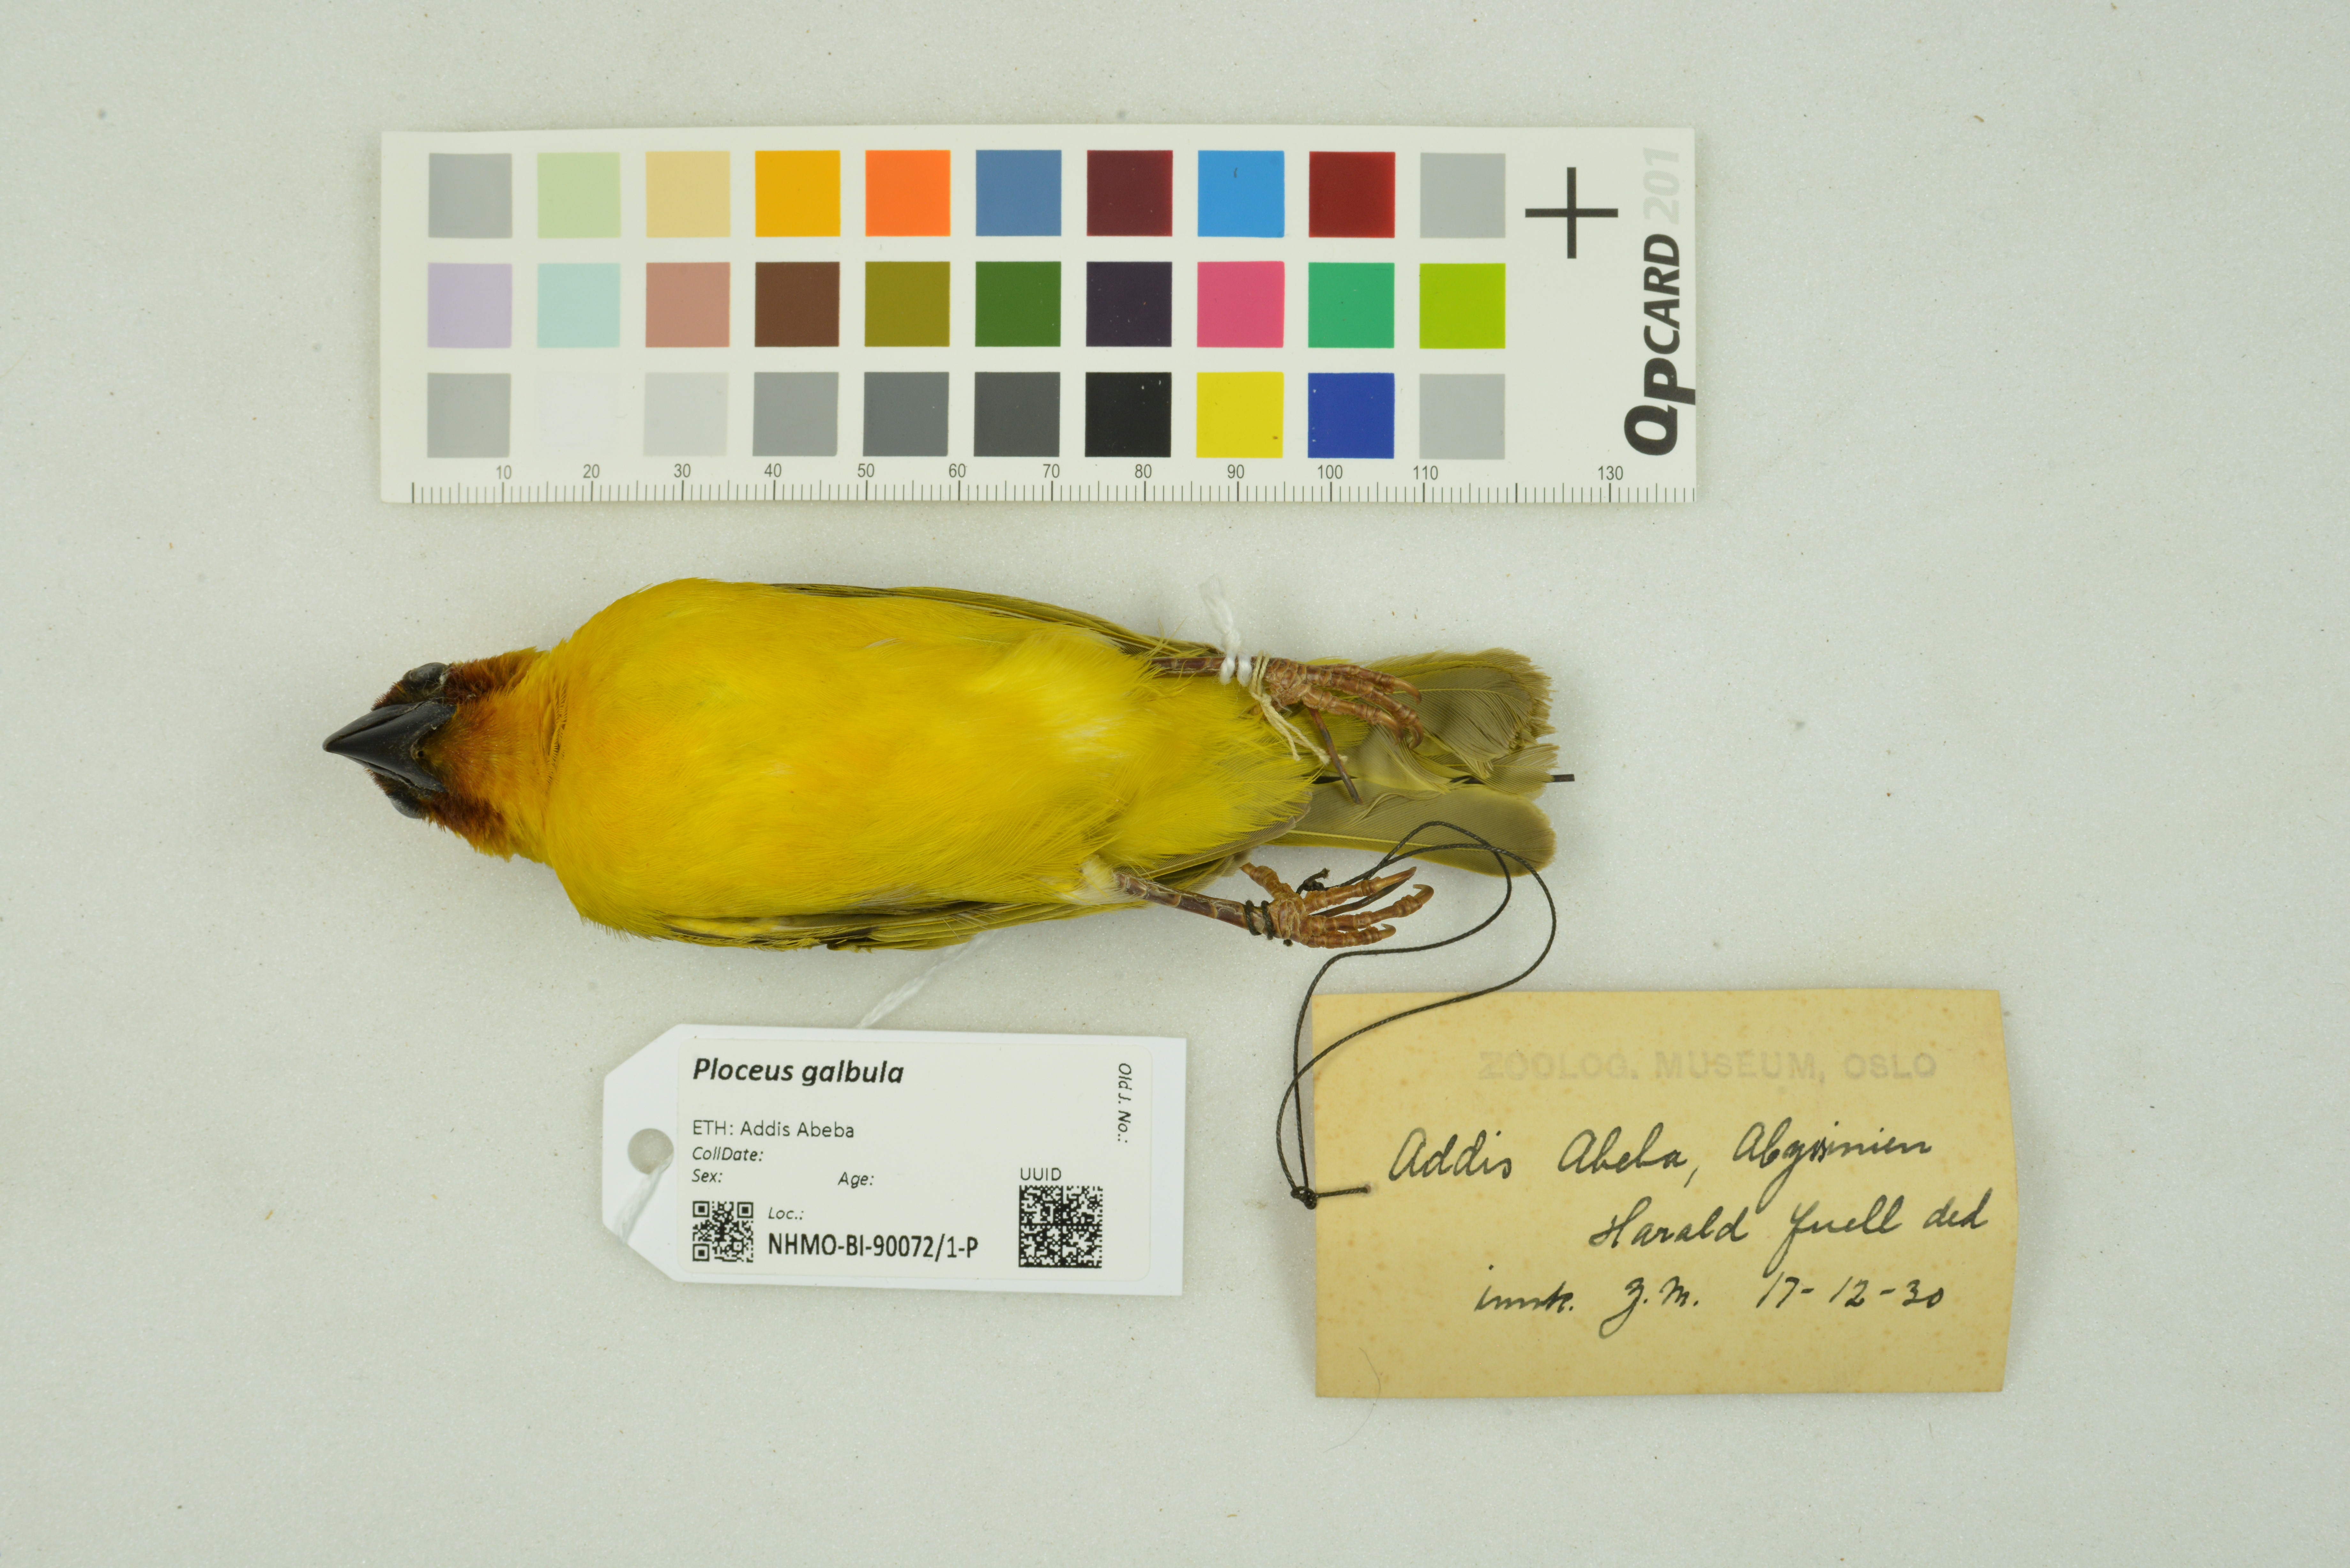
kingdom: Animalia
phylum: Chordata
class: Aves
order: Passeriformes
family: Ploceidae
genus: Ploceus
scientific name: Ploceus galbula
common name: Rüppell's weaver
